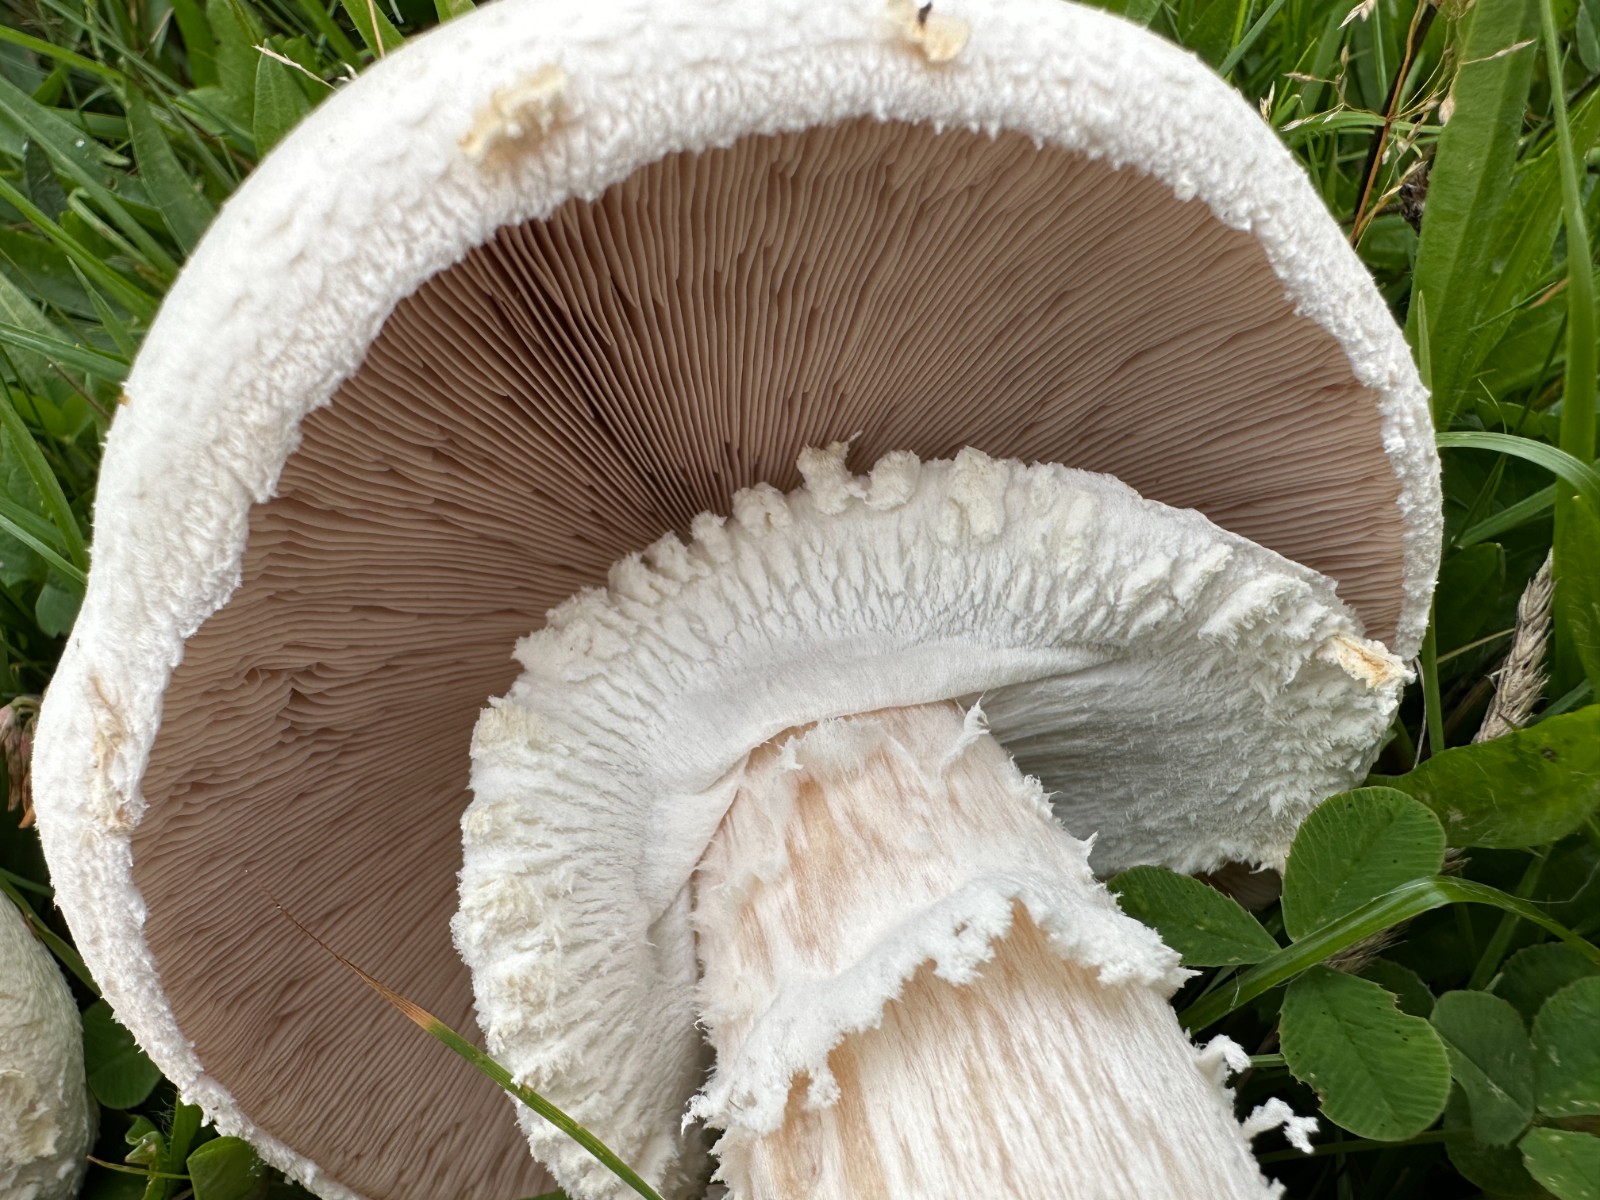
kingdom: Fungi
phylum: Basidiomycota
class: Agaricomycetes
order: Agaricales
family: Agaricaceae
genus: Agaricus
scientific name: Agaricus crocodilinus
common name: landsby-champignon
